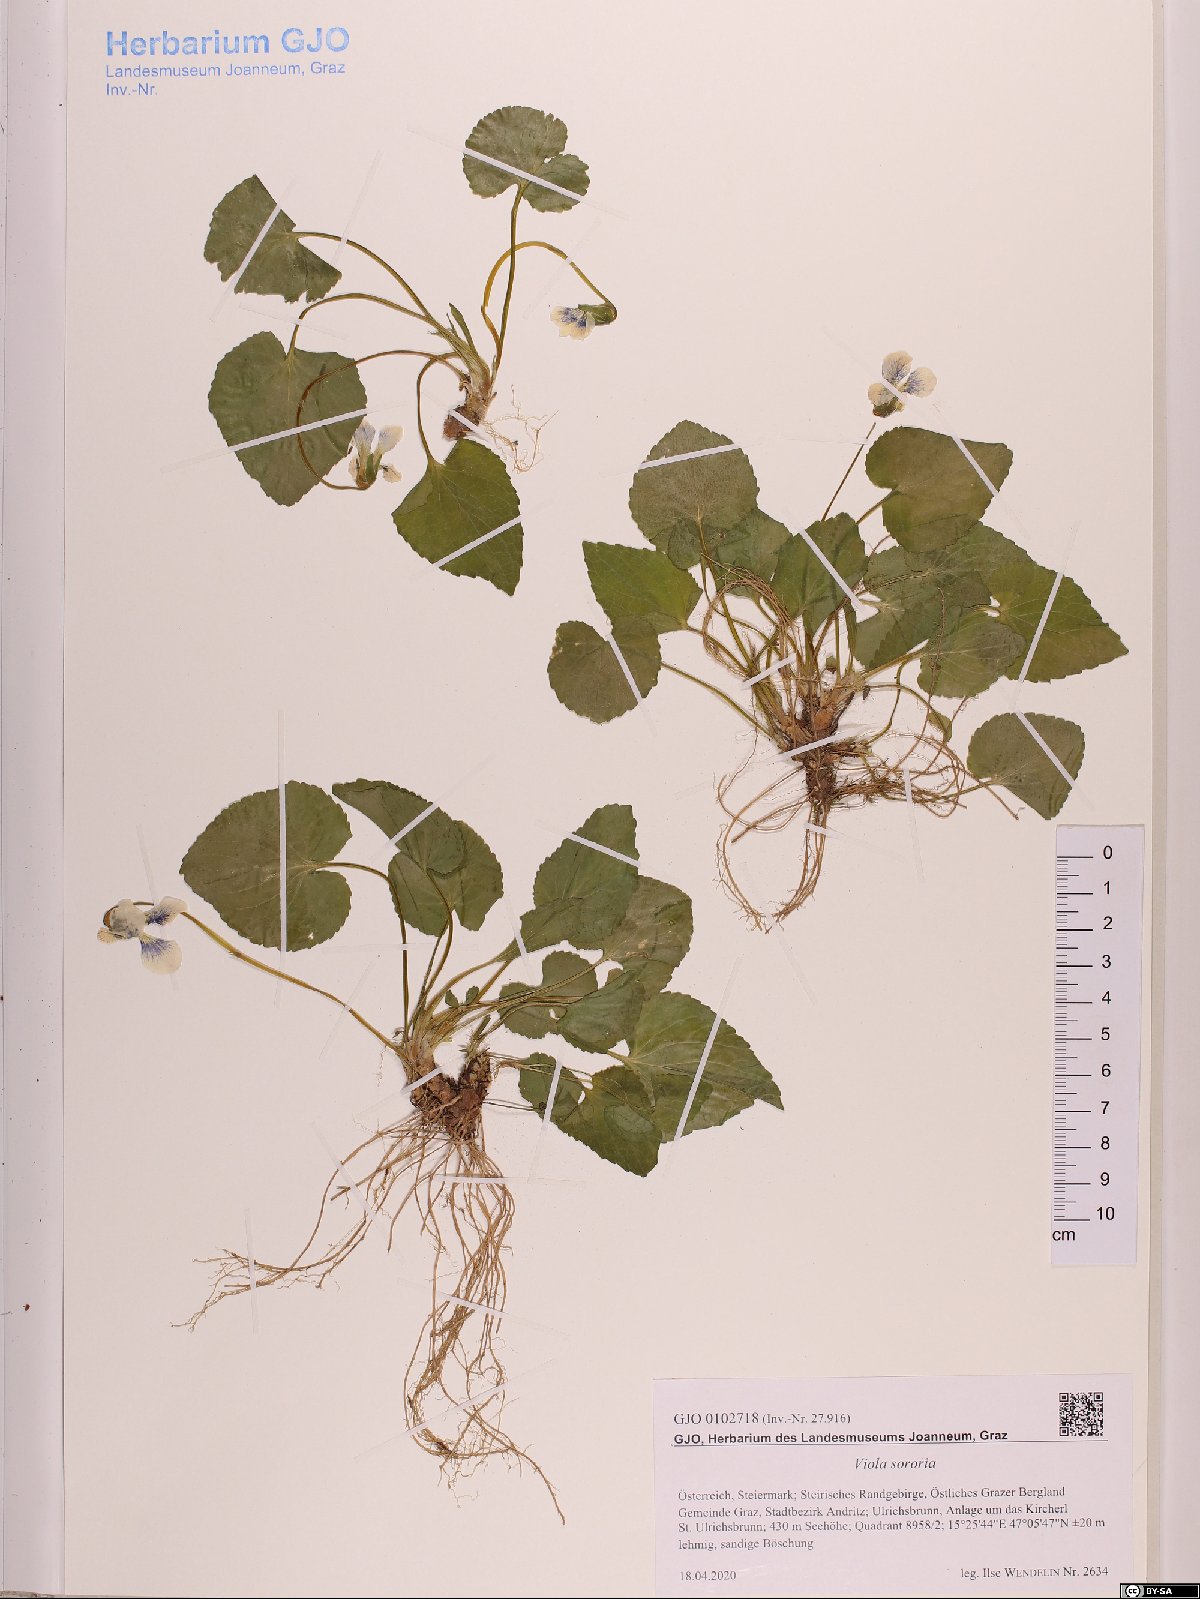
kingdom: Plantae
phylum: Tracheophyta
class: Magnoliopsida
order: Malpighiales
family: Violaceae
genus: Viola
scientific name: Viola sororia
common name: Dooryard violet
